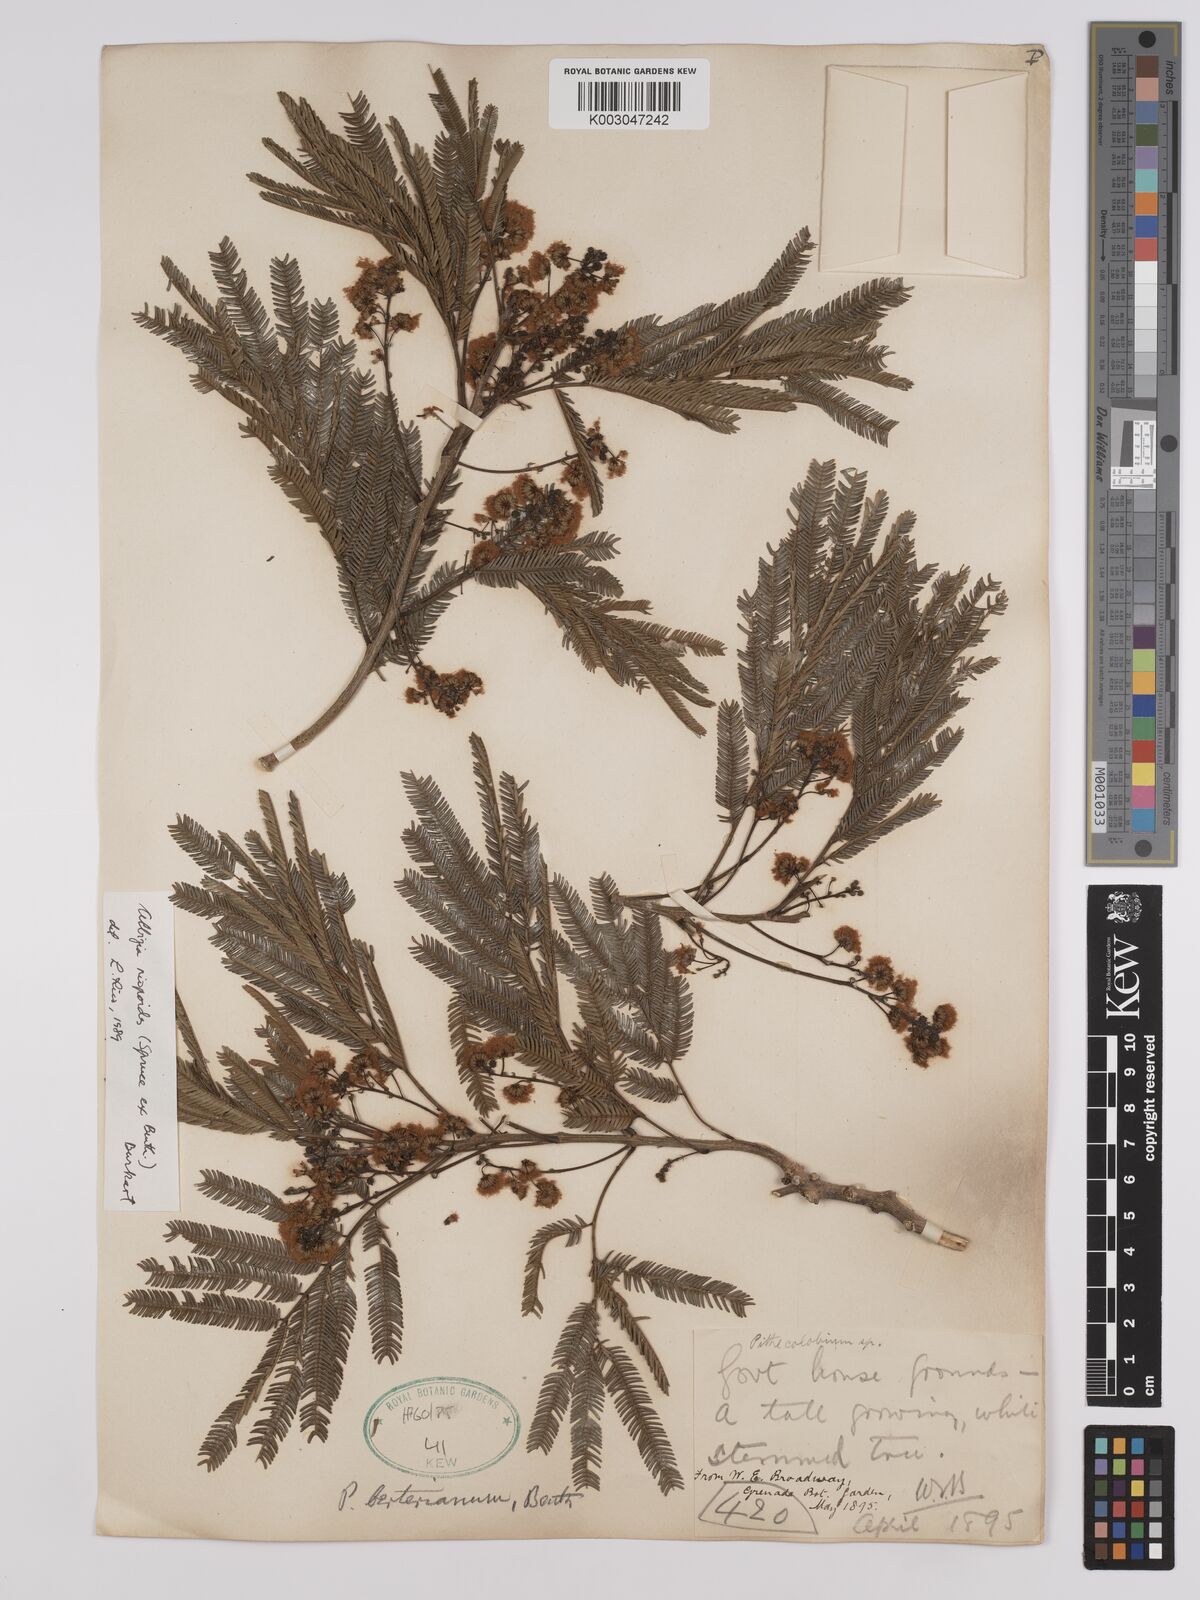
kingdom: Plantae
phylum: Tracheophyta
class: Magnoliopsida
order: Fabales
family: Fabaceae
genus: Albizia
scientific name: Albizia niopoides
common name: Silk tree
